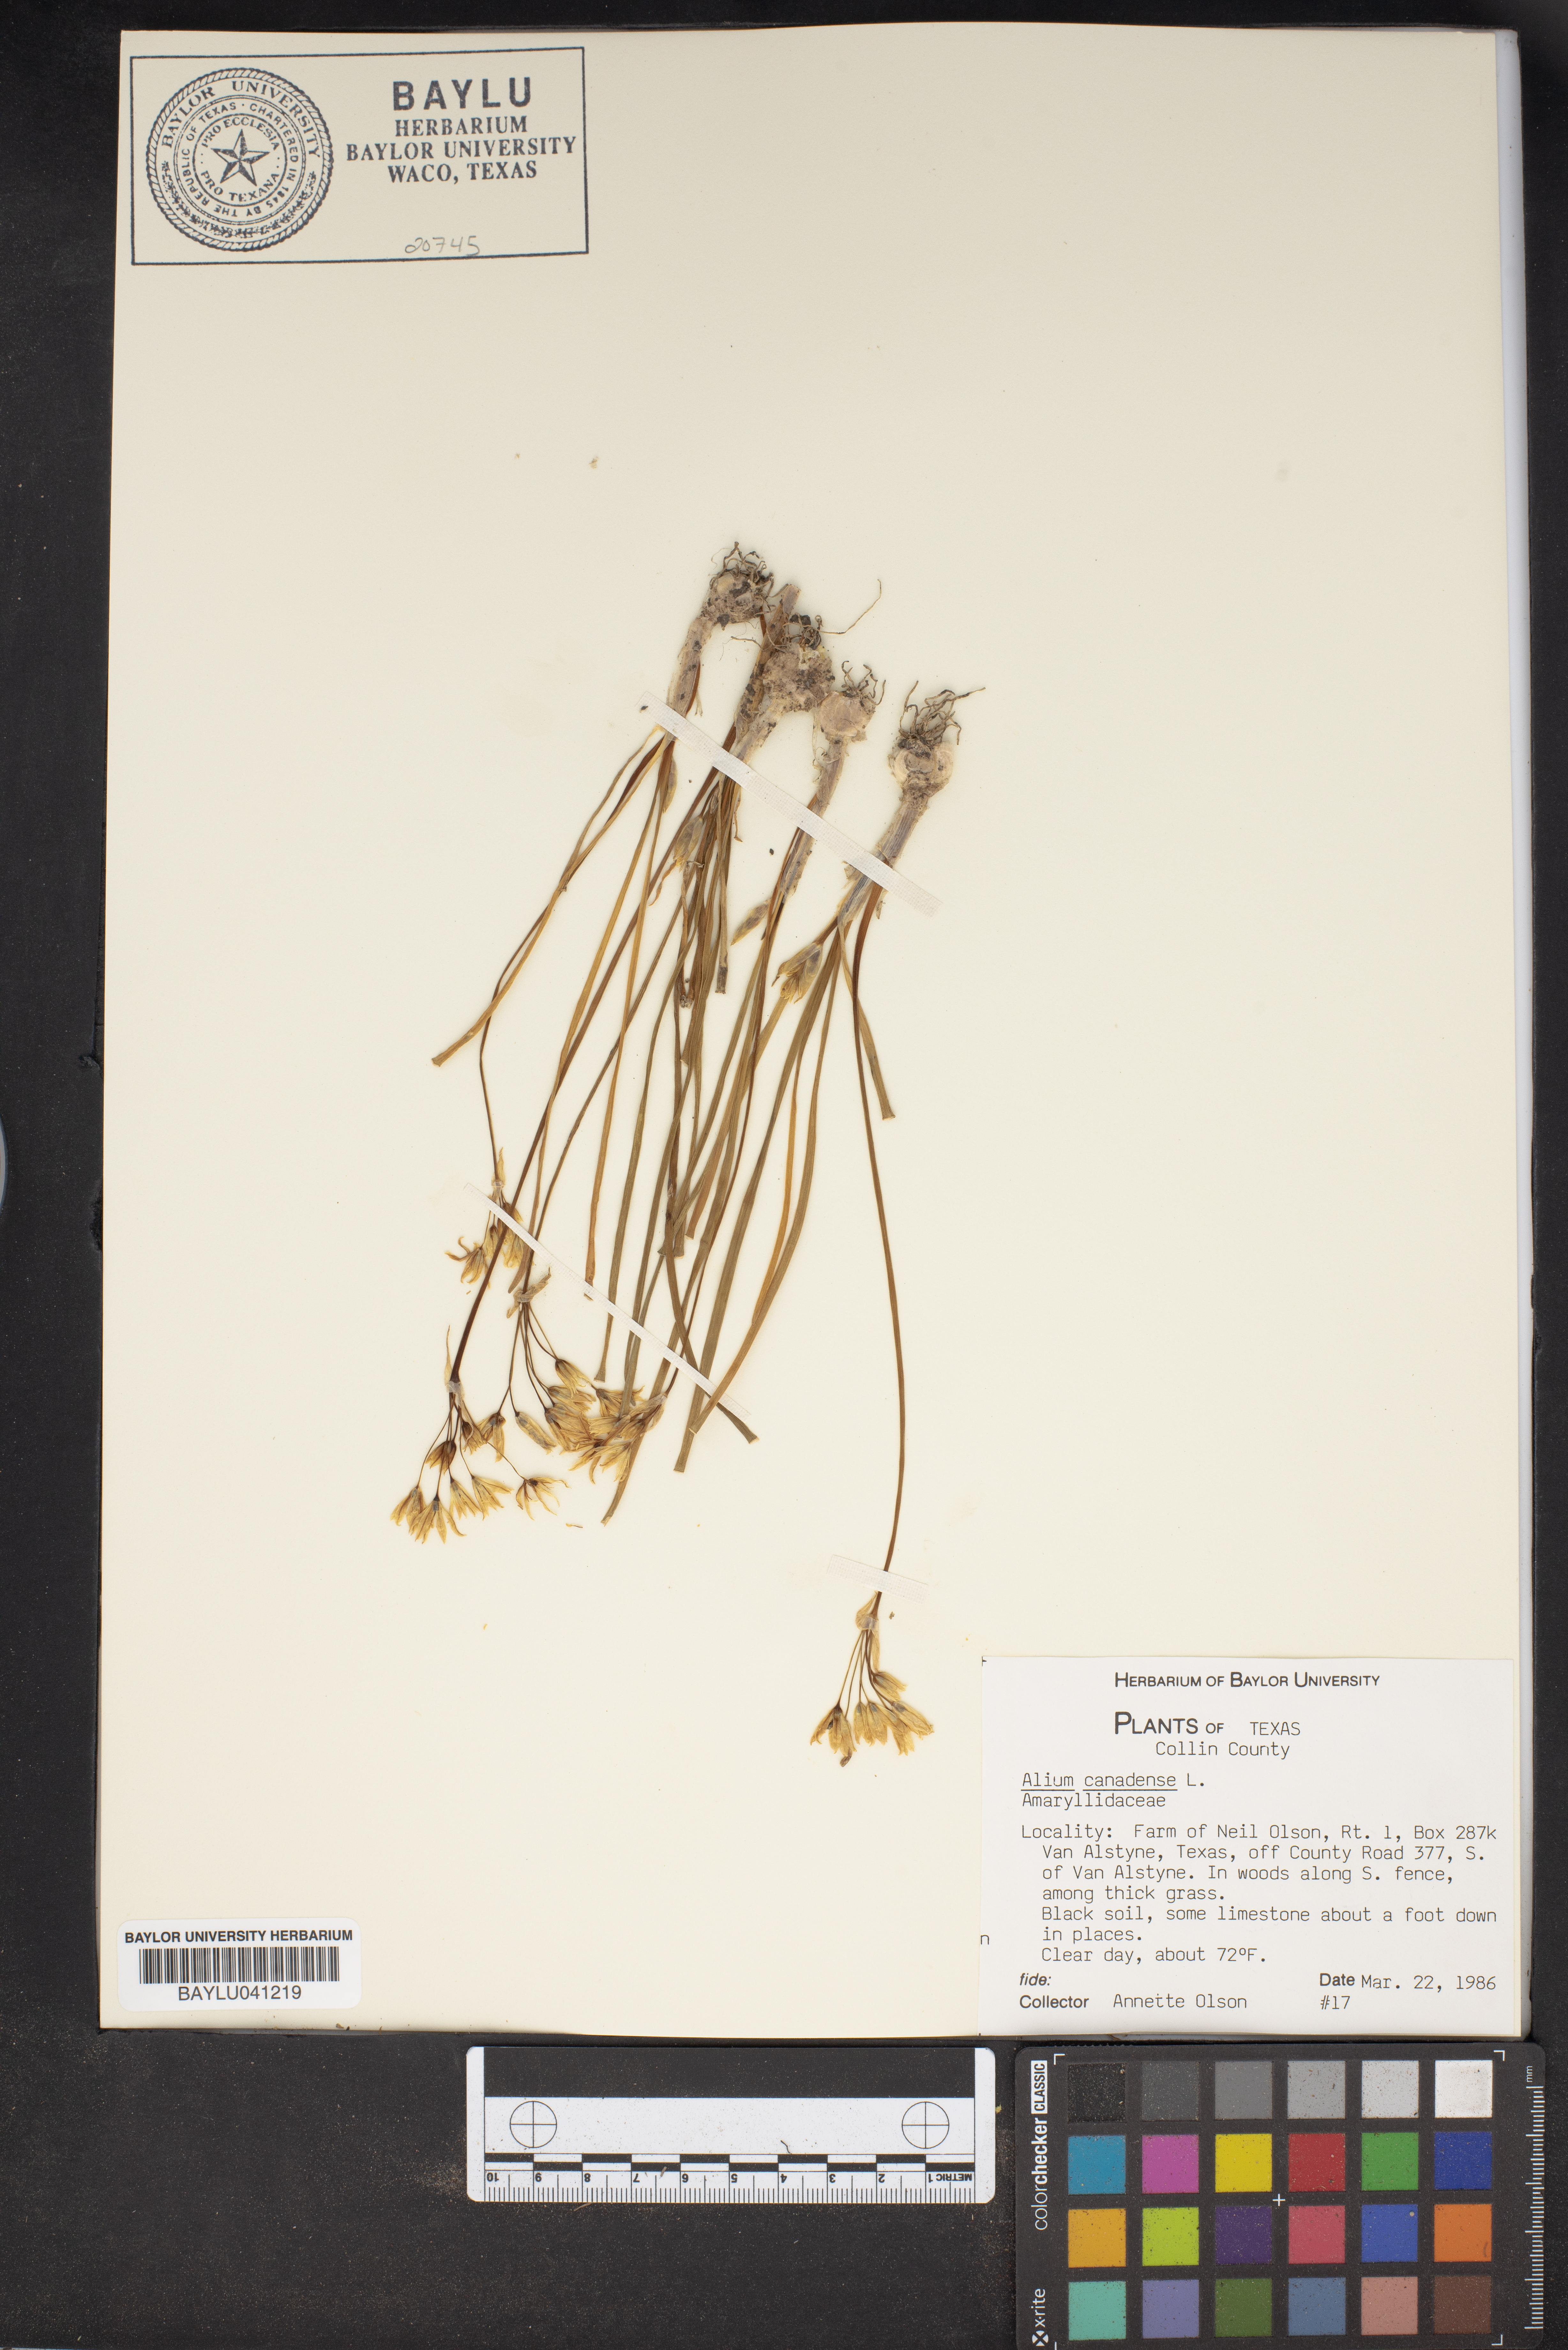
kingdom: Plantae
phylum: Tracheophyta
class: Liliopsida
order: Asparagales
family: Amaryllidaceae
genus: Allium
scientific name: Allium canadense
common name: Meadow garlic
